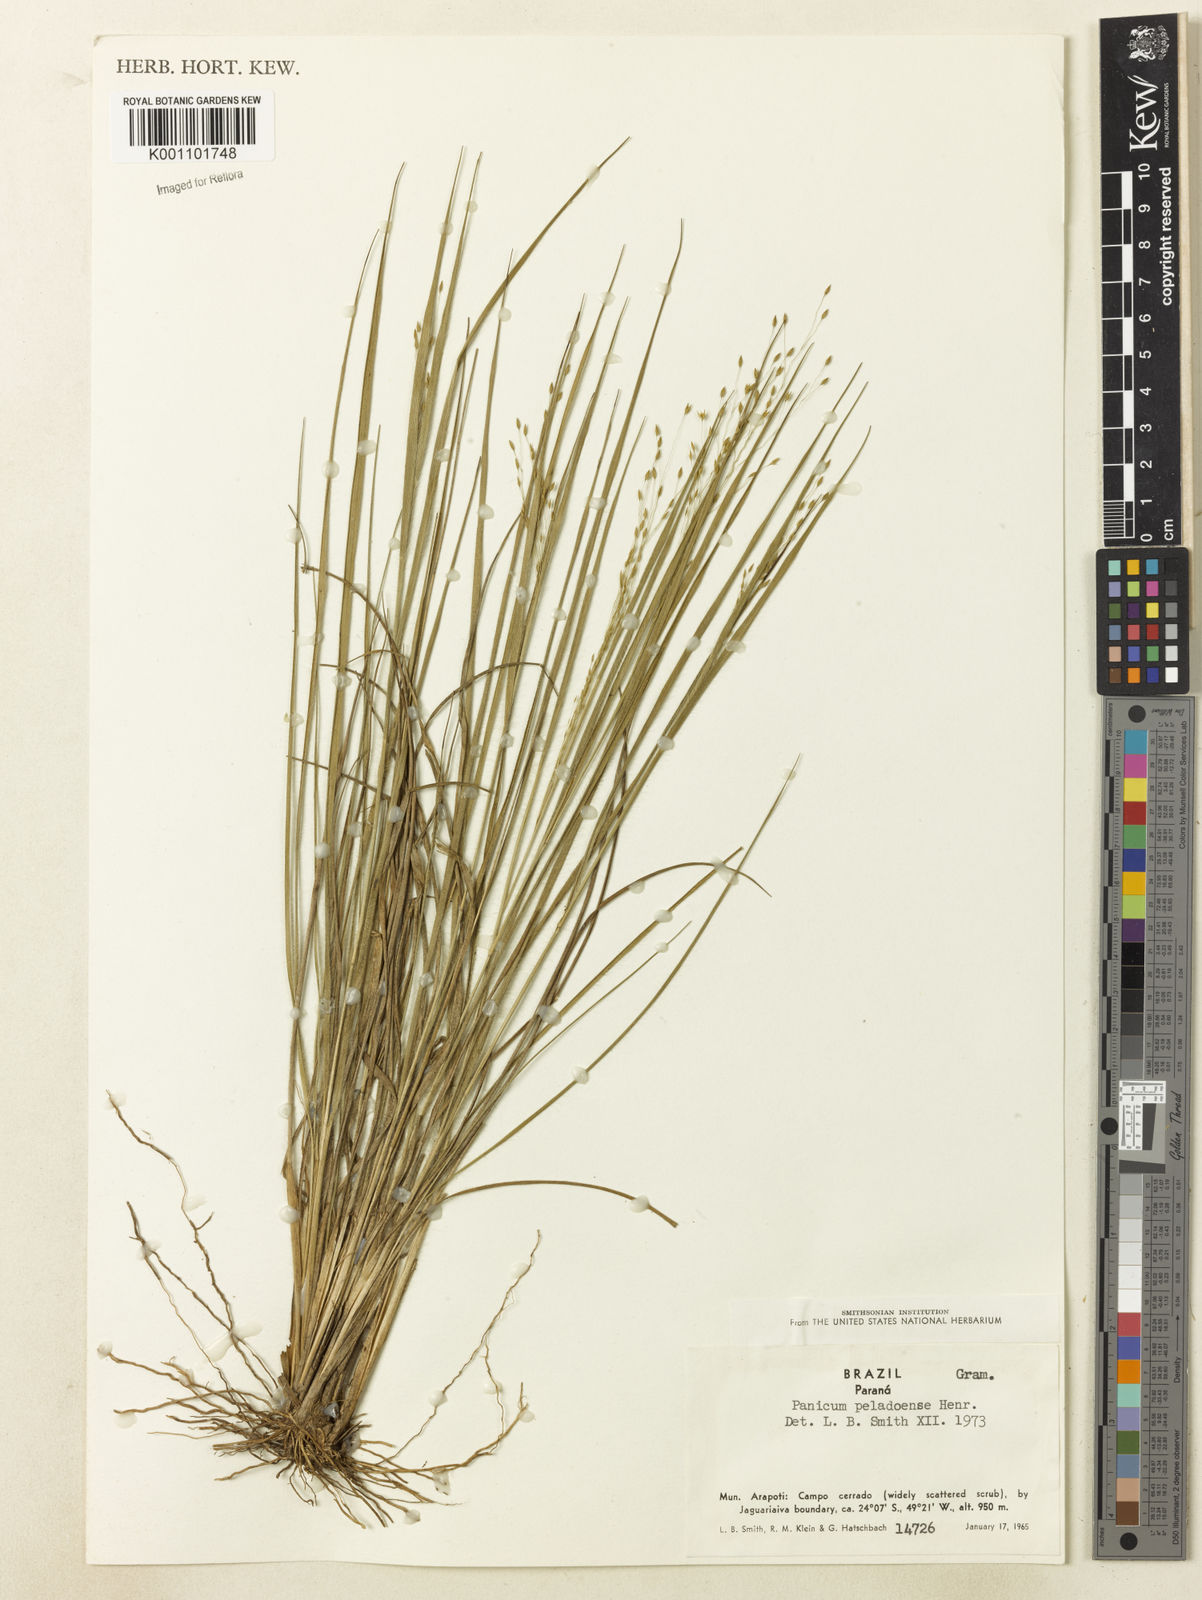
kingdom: Plantae
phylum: Tracheophyta
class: Liliopsida
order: Poales
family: Poaceae
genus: Panicum
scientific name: Panicum peladoense
